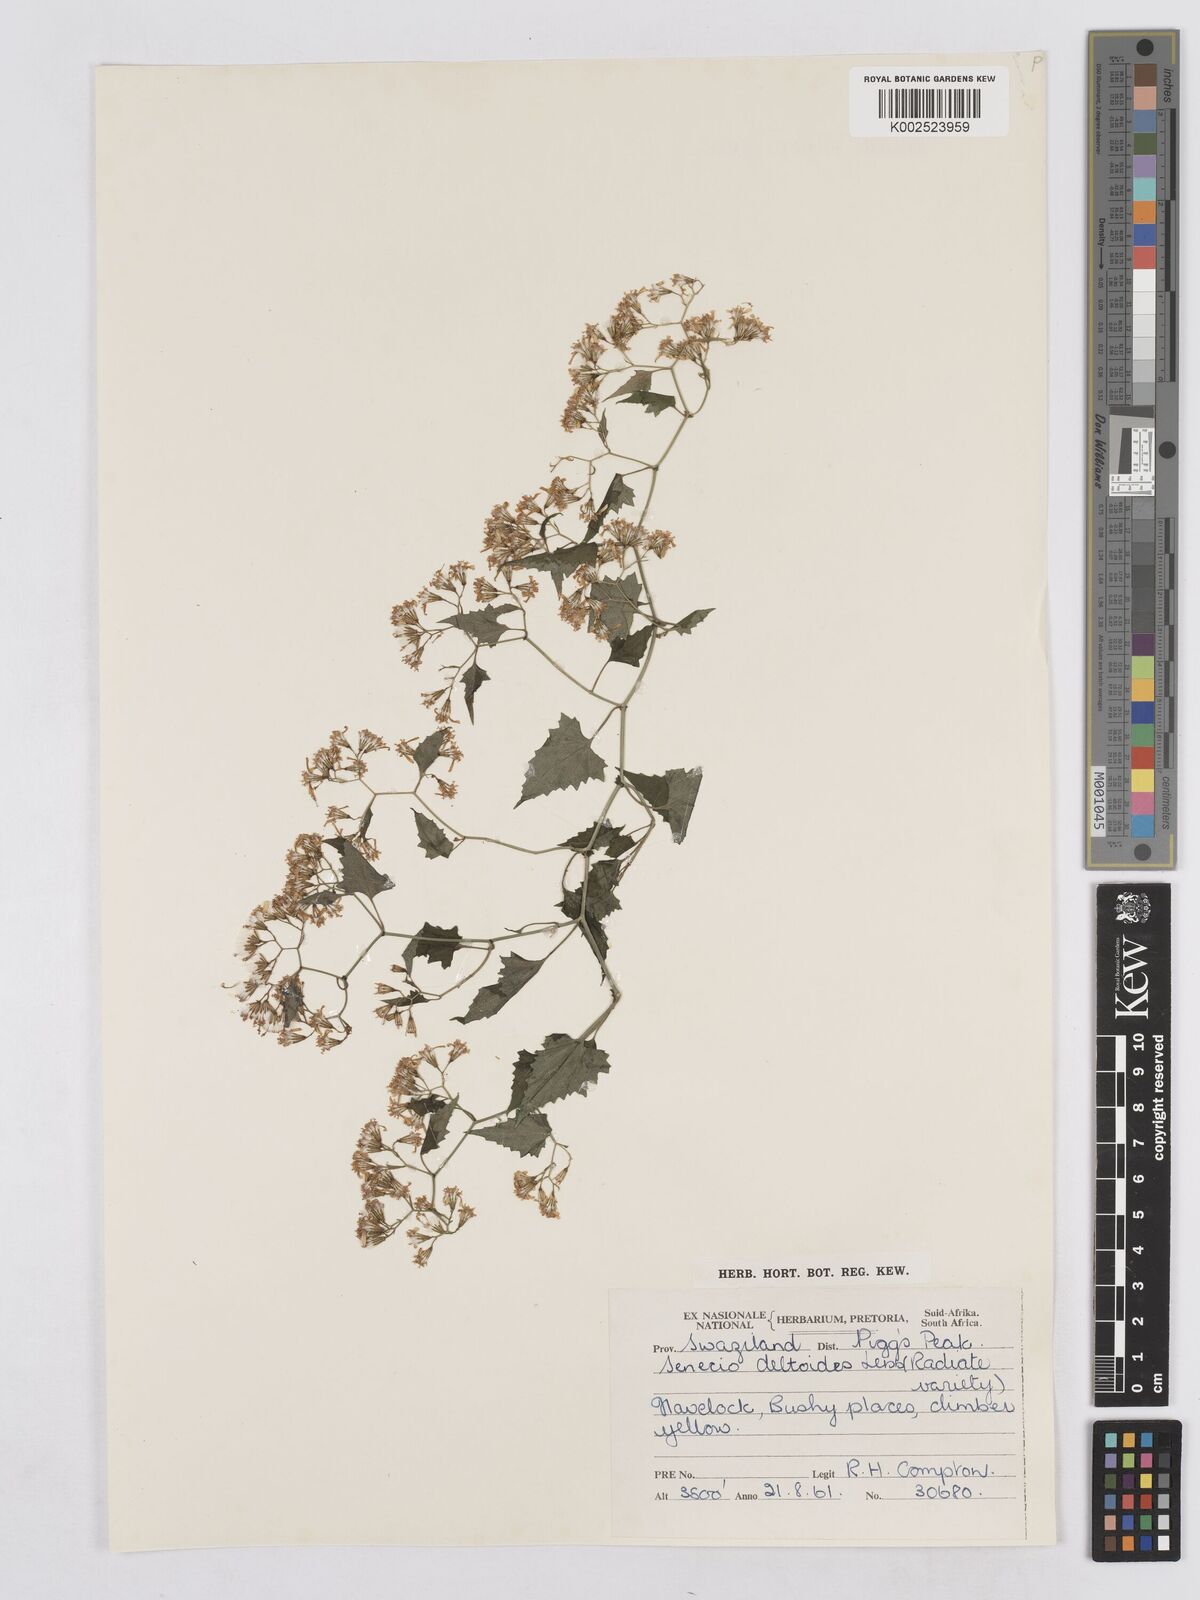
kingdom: Plantae
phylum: Tracheophyta
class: Magnoliopsida
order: Asterales
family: Asteraceae
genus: Senecio
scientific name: Senecio deltoideus
